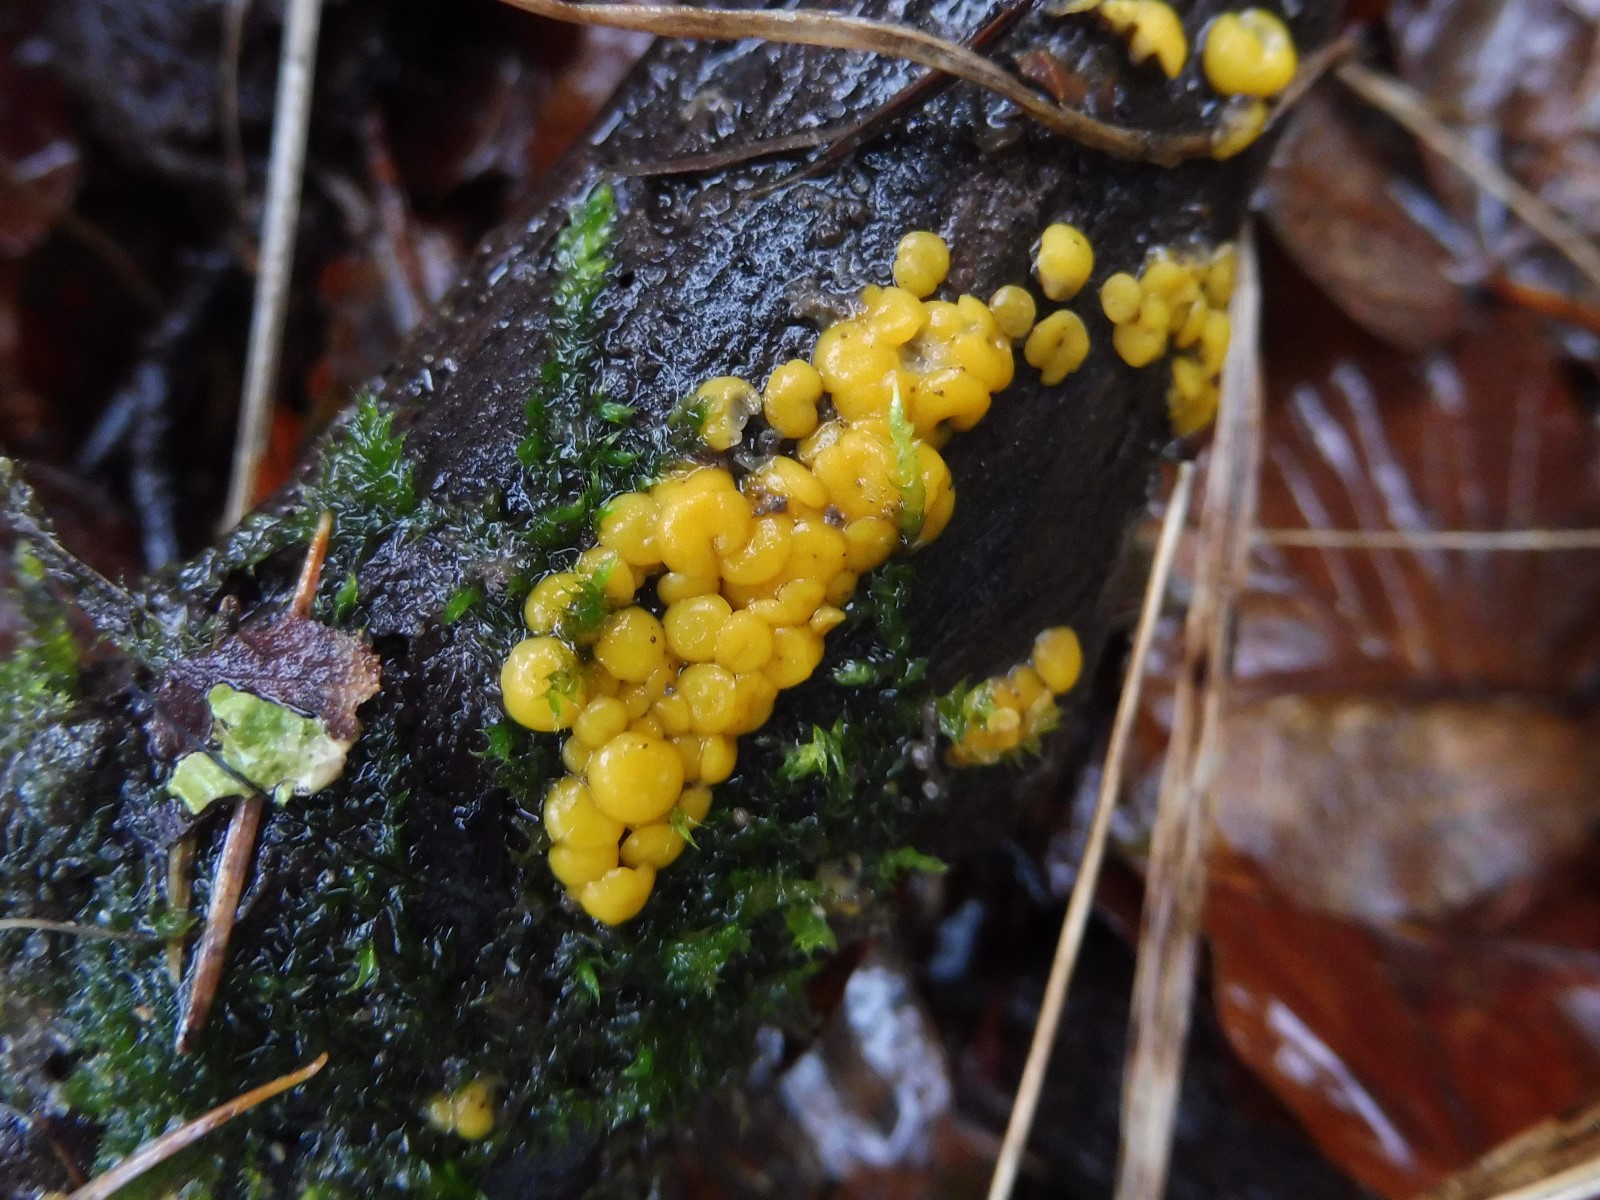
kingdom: Fungi
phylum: Ascomycota
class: Leotiomycetes
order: Helotiales
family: Pezizellaceae
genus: Calycina
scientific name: Calycina citrina
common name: almindelig gulskive
